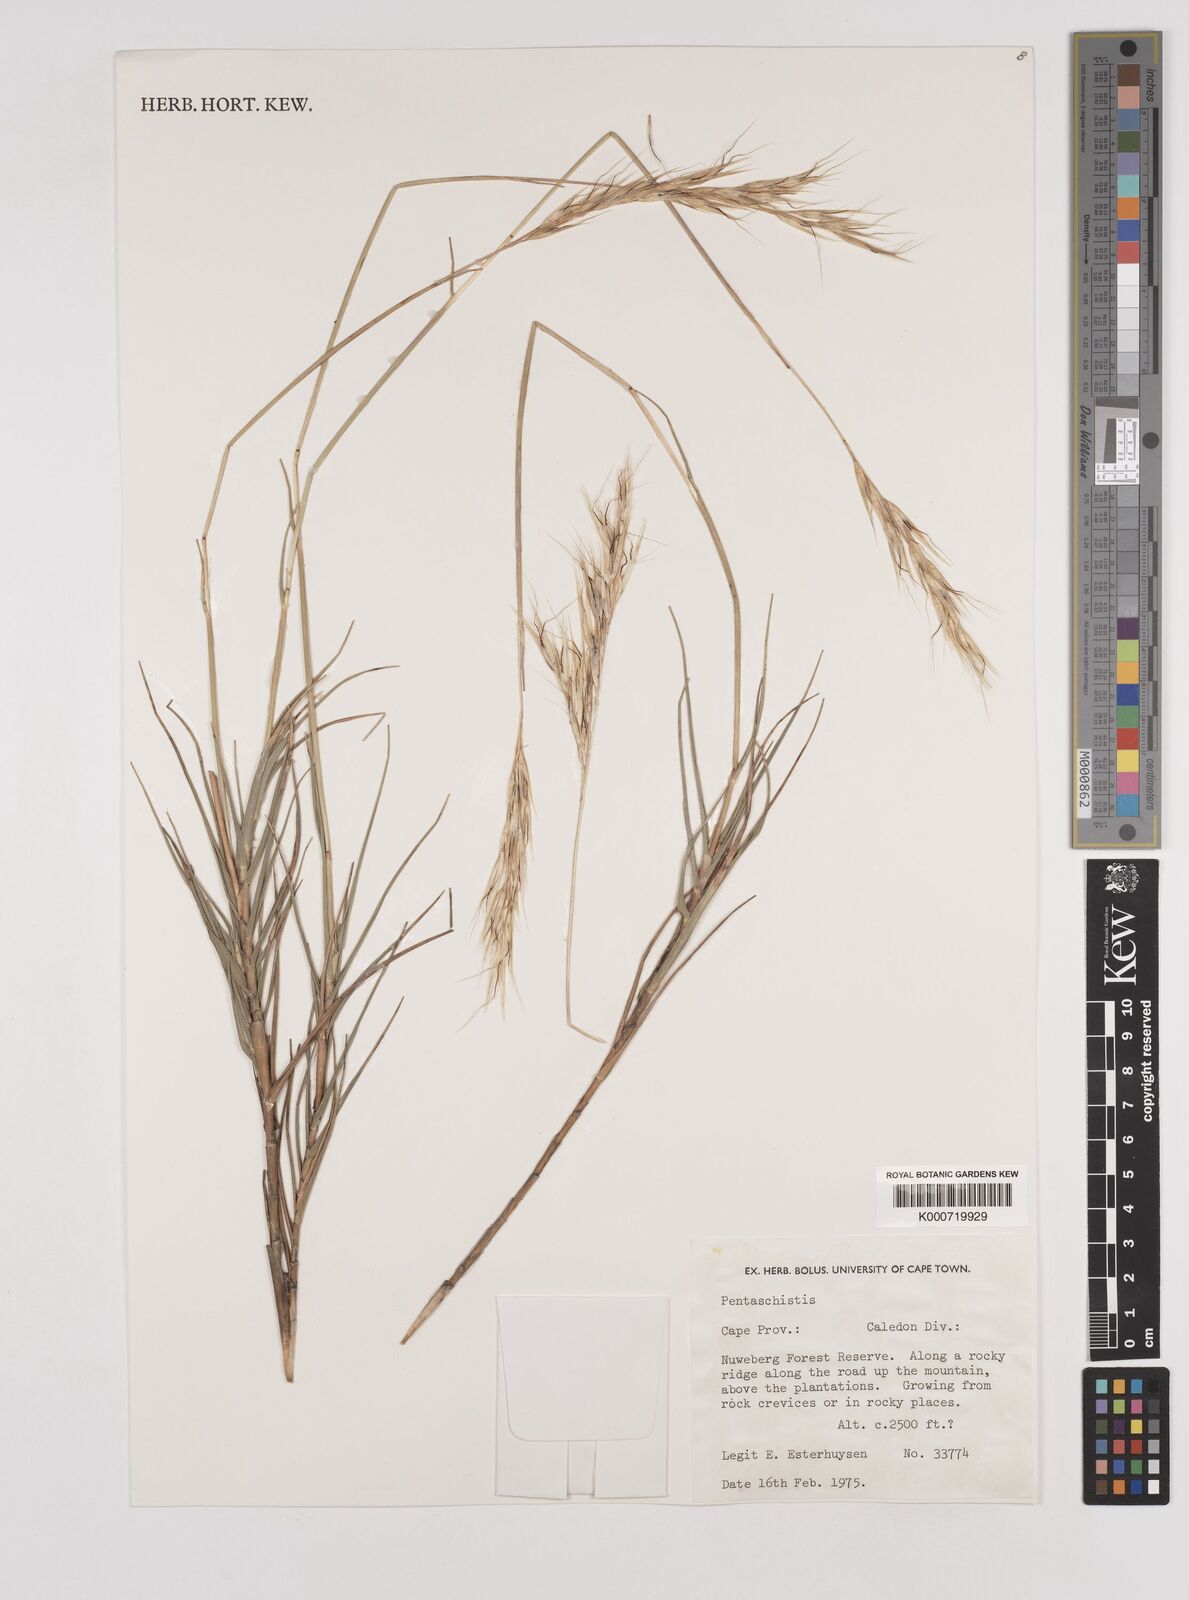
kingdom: Plantae
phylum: Tracheophyta
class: Liliopsida
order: Poales
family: Poaceae
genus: Pentameris
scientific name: Pentameris dregeana
